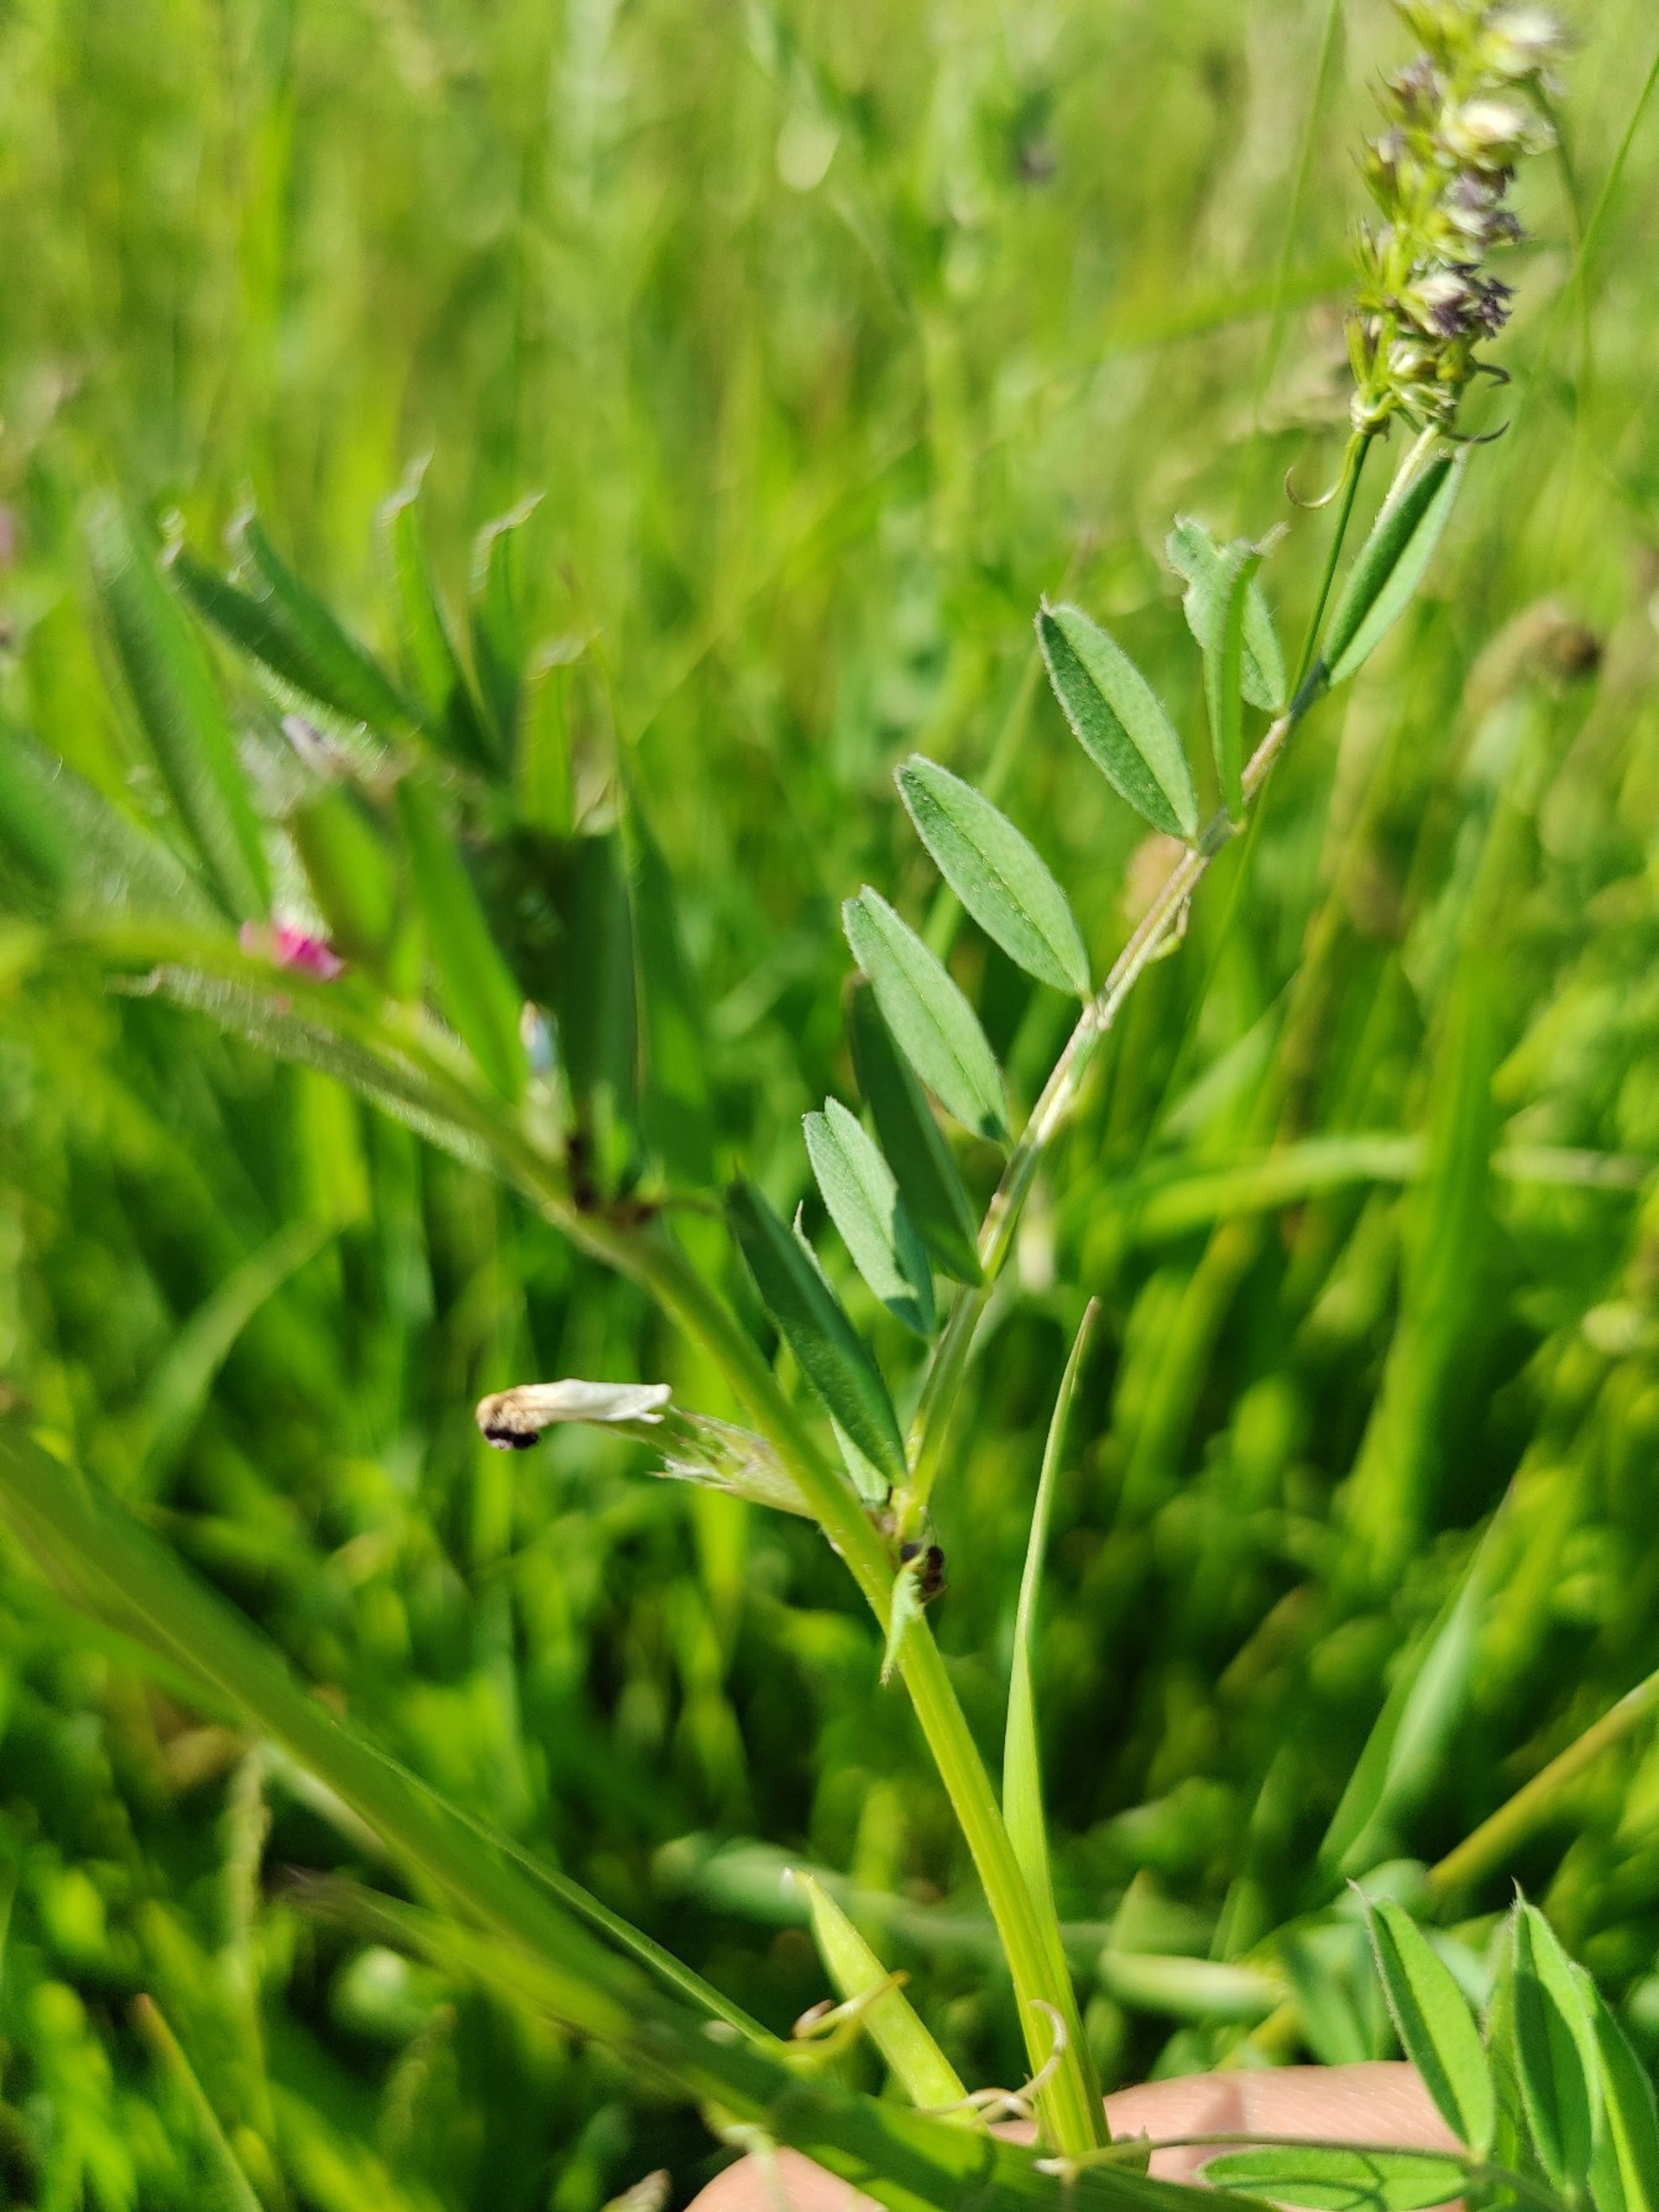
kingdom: Plantae
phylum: Tracheophyta
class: Magnoliopsida
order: Fabales
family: Fabaceae
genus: Vicia
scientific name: Vicia sativa
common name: Foder-vikke
